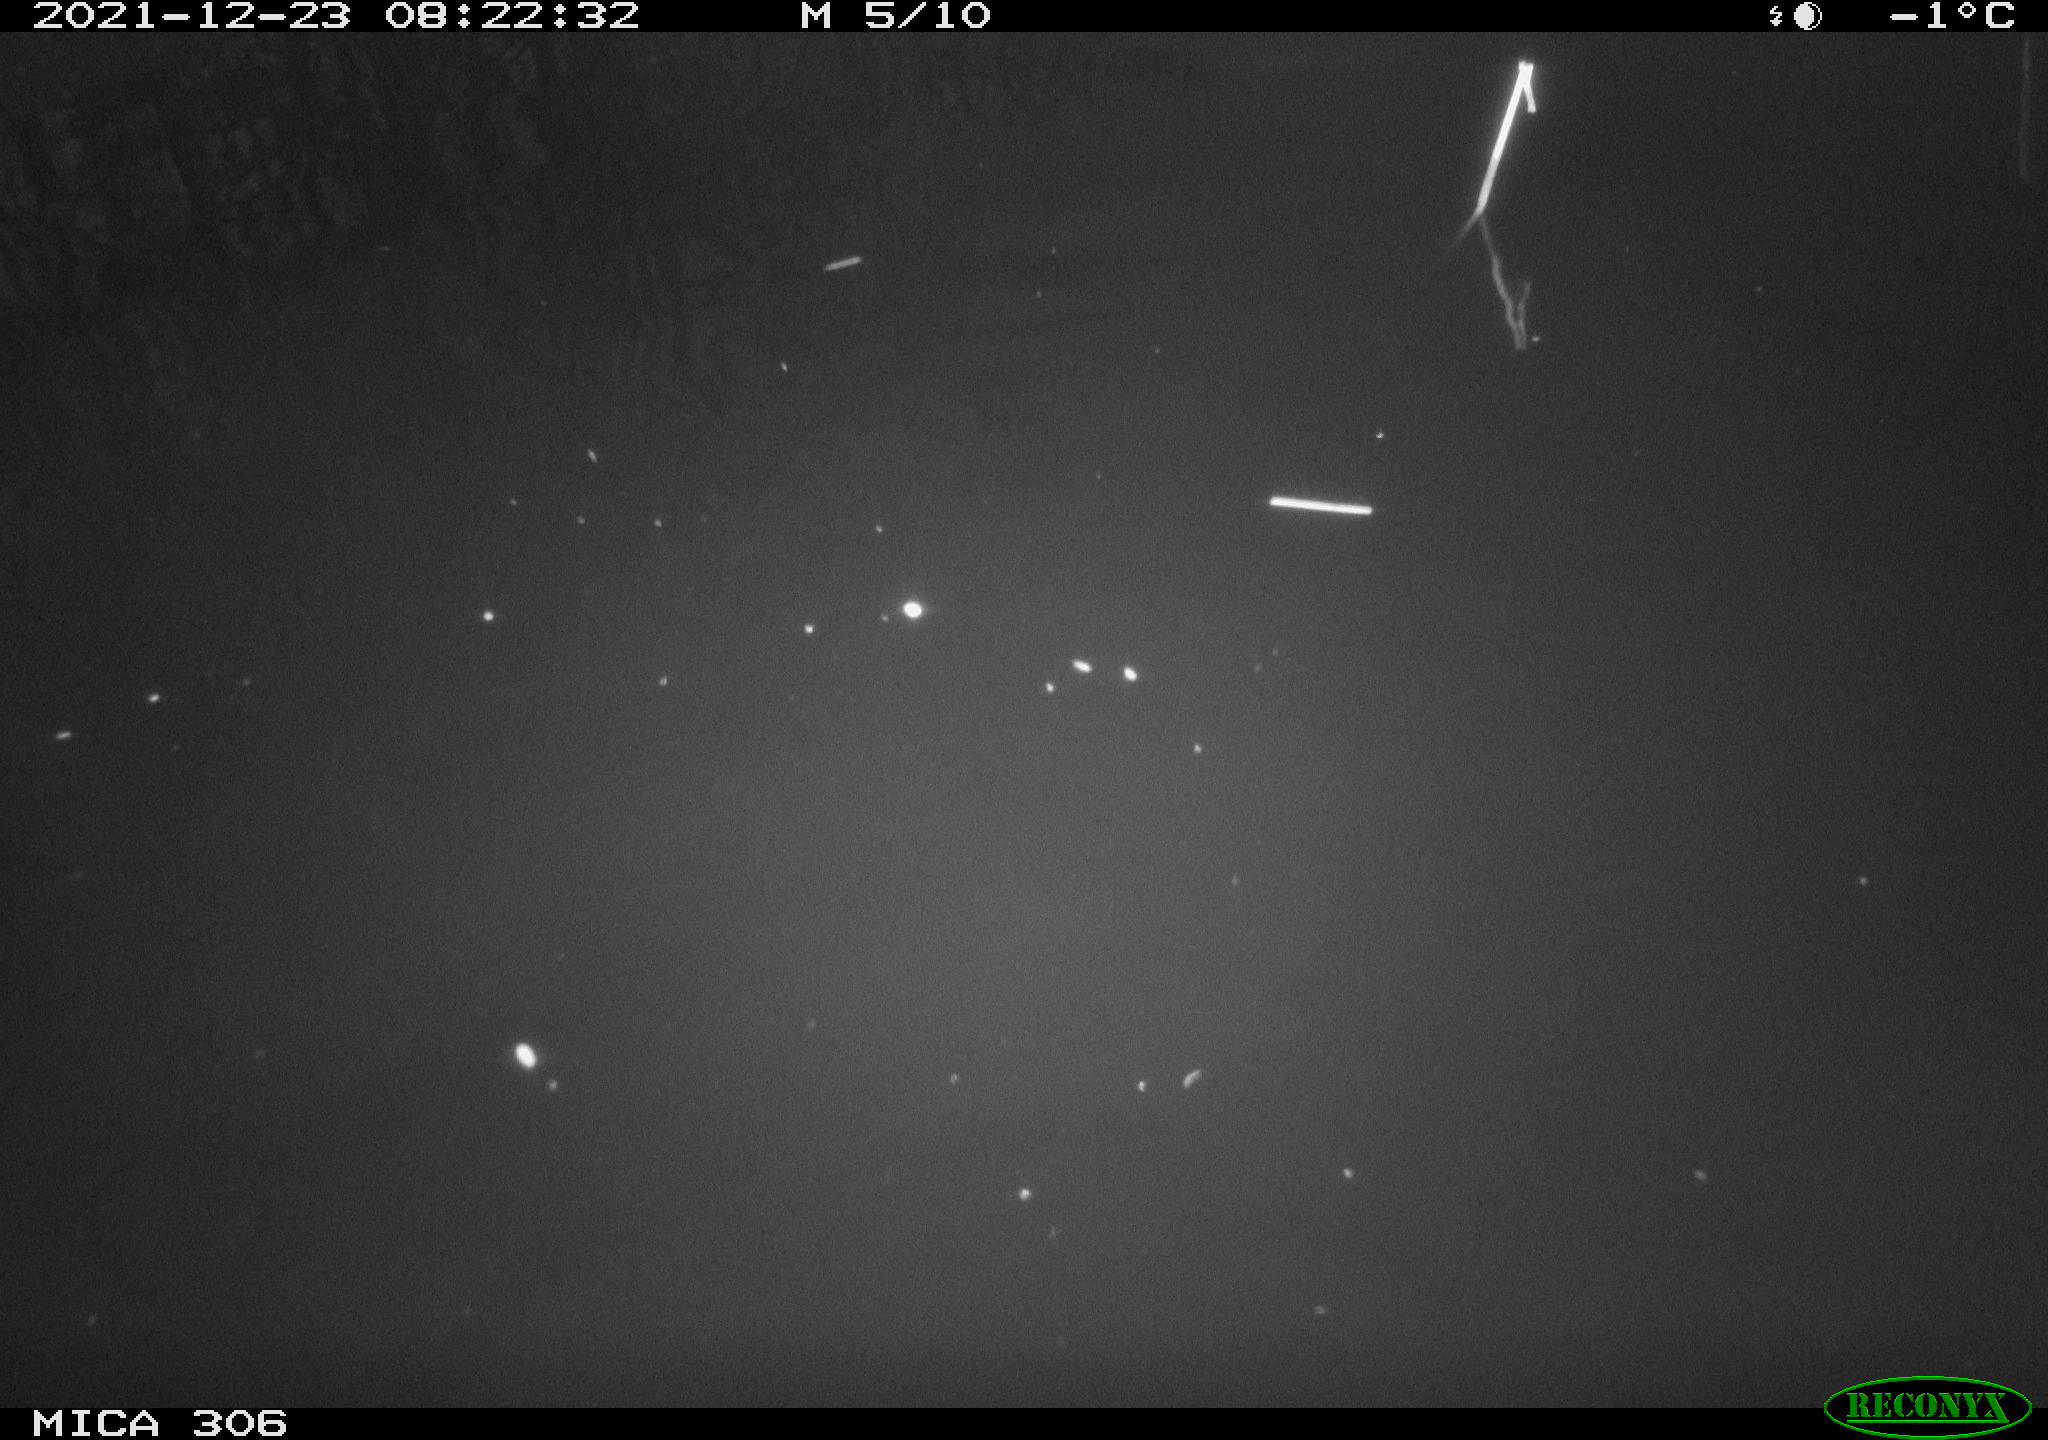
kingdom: Animalia
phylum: Chordata
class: Aves
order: Gruiformes
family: Rallidae
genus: Gallinula
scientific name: Gallinula chloropus
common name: Common moorhen
